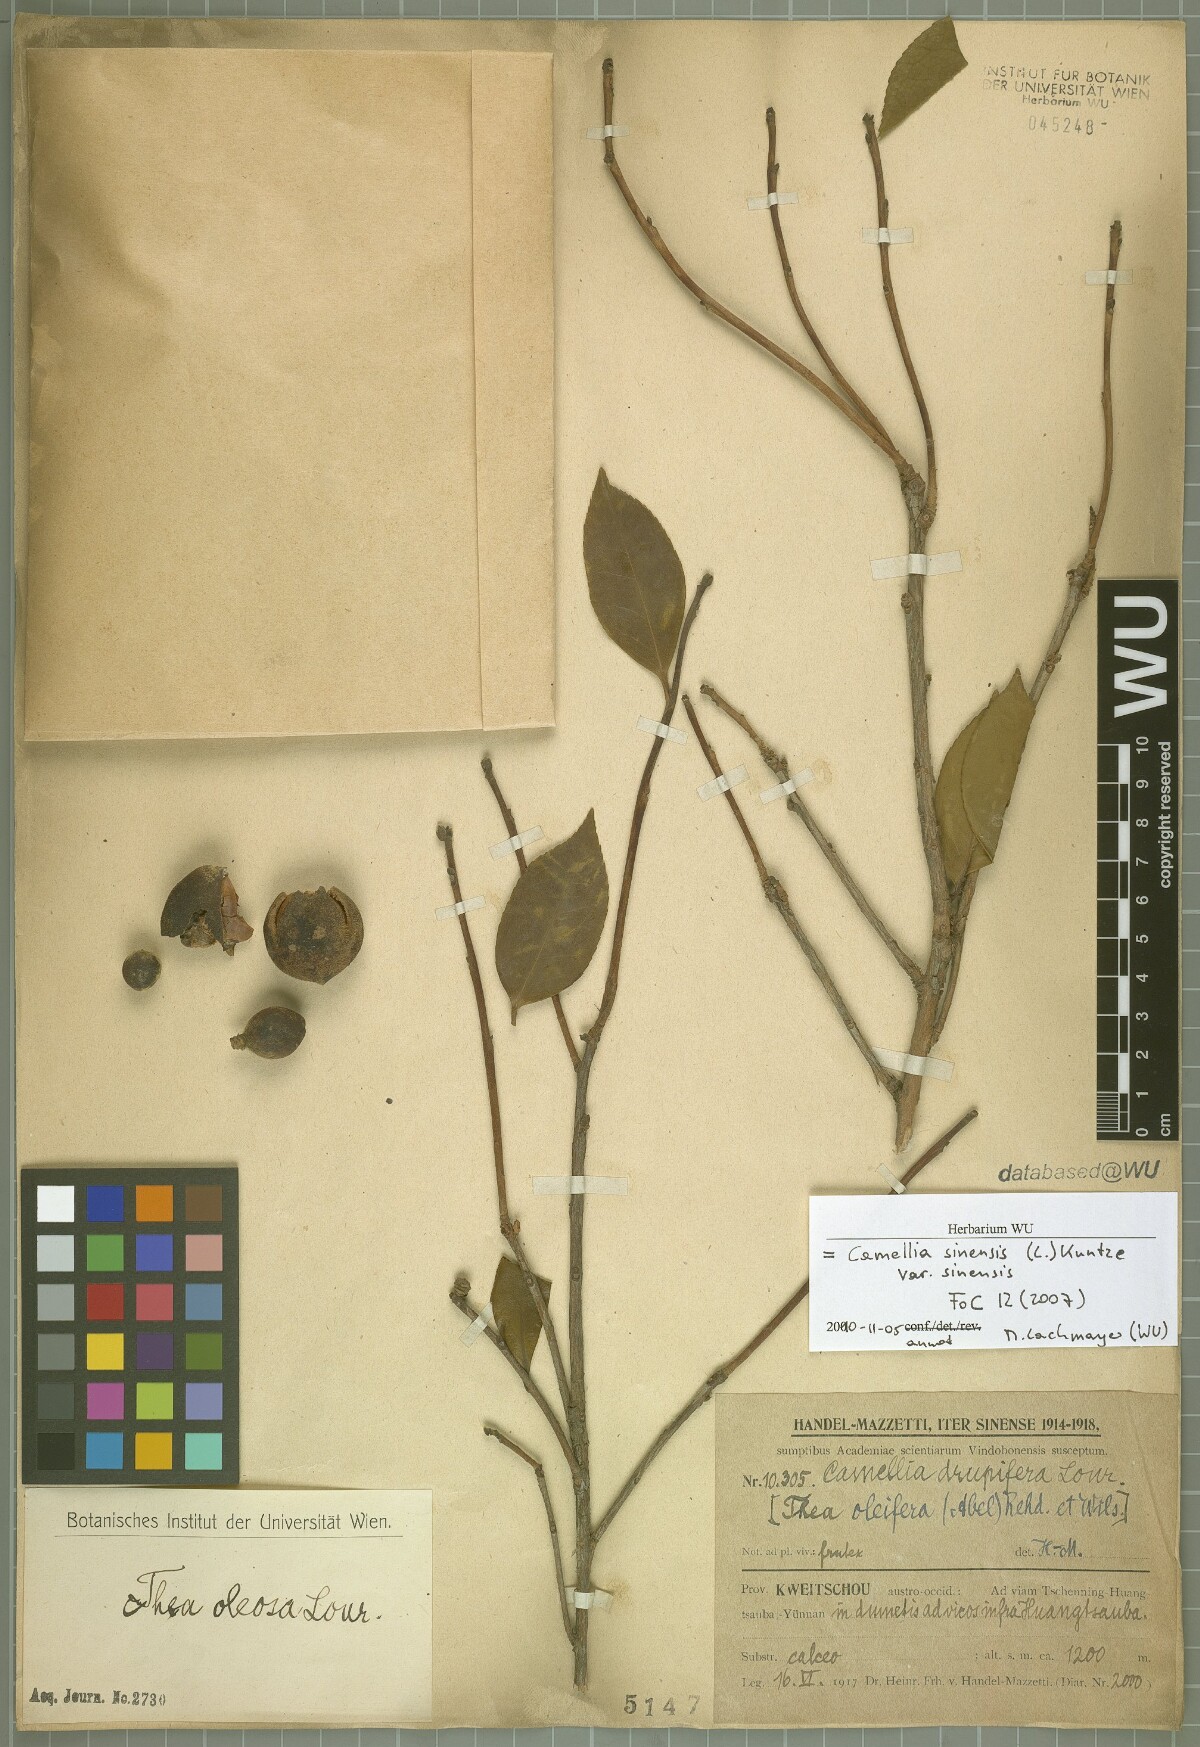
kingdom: Plantae
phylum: Tracheophyta
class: Magnoliopsida
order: Ericales
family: Theaceae
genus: Camellia
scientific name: Camellia sinensis
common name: Tea
